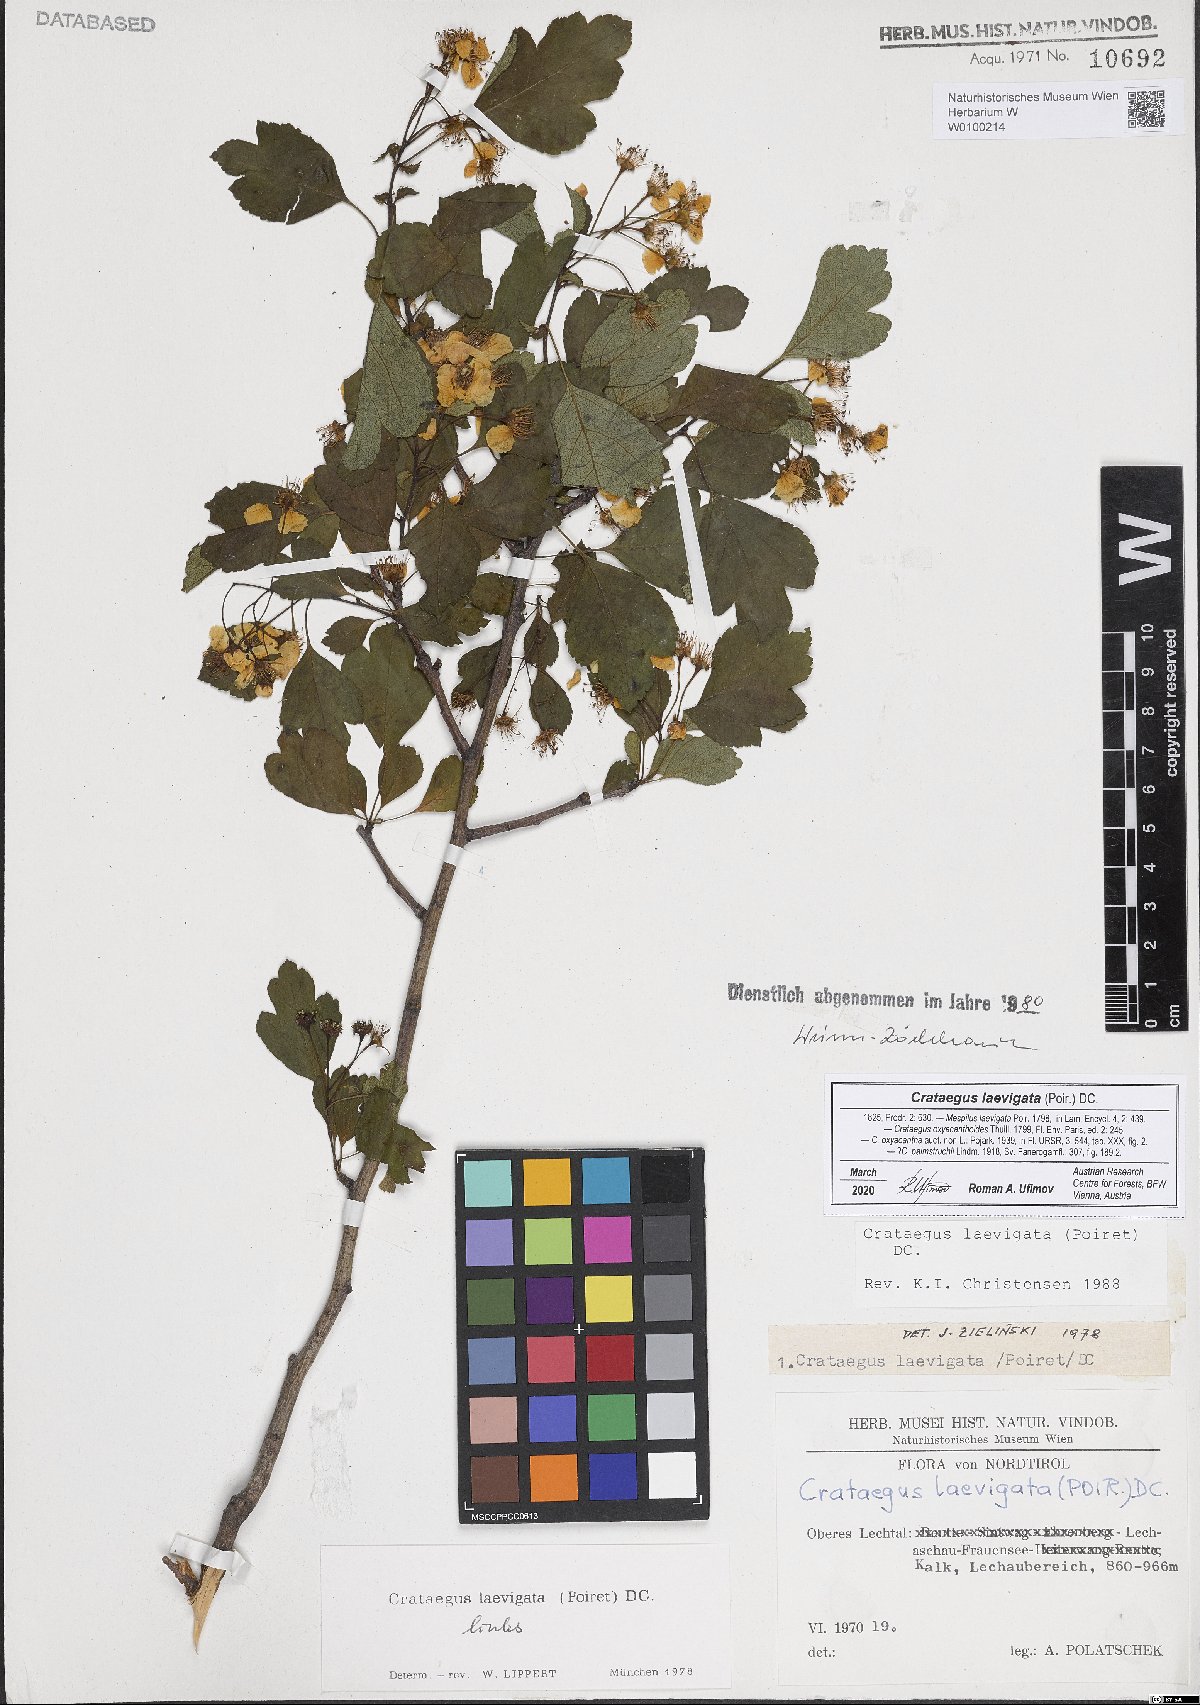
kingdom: Plantae
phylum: Tracheophyta
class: Magnoliopsida
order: Rosales
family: Rosaceae
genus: Crataegus
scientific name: Crataegus laevigata
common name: Midland hawthorn
